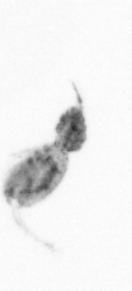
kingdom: Animalia
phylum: Arthropoda
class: Copepoda
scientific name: Copepoda
